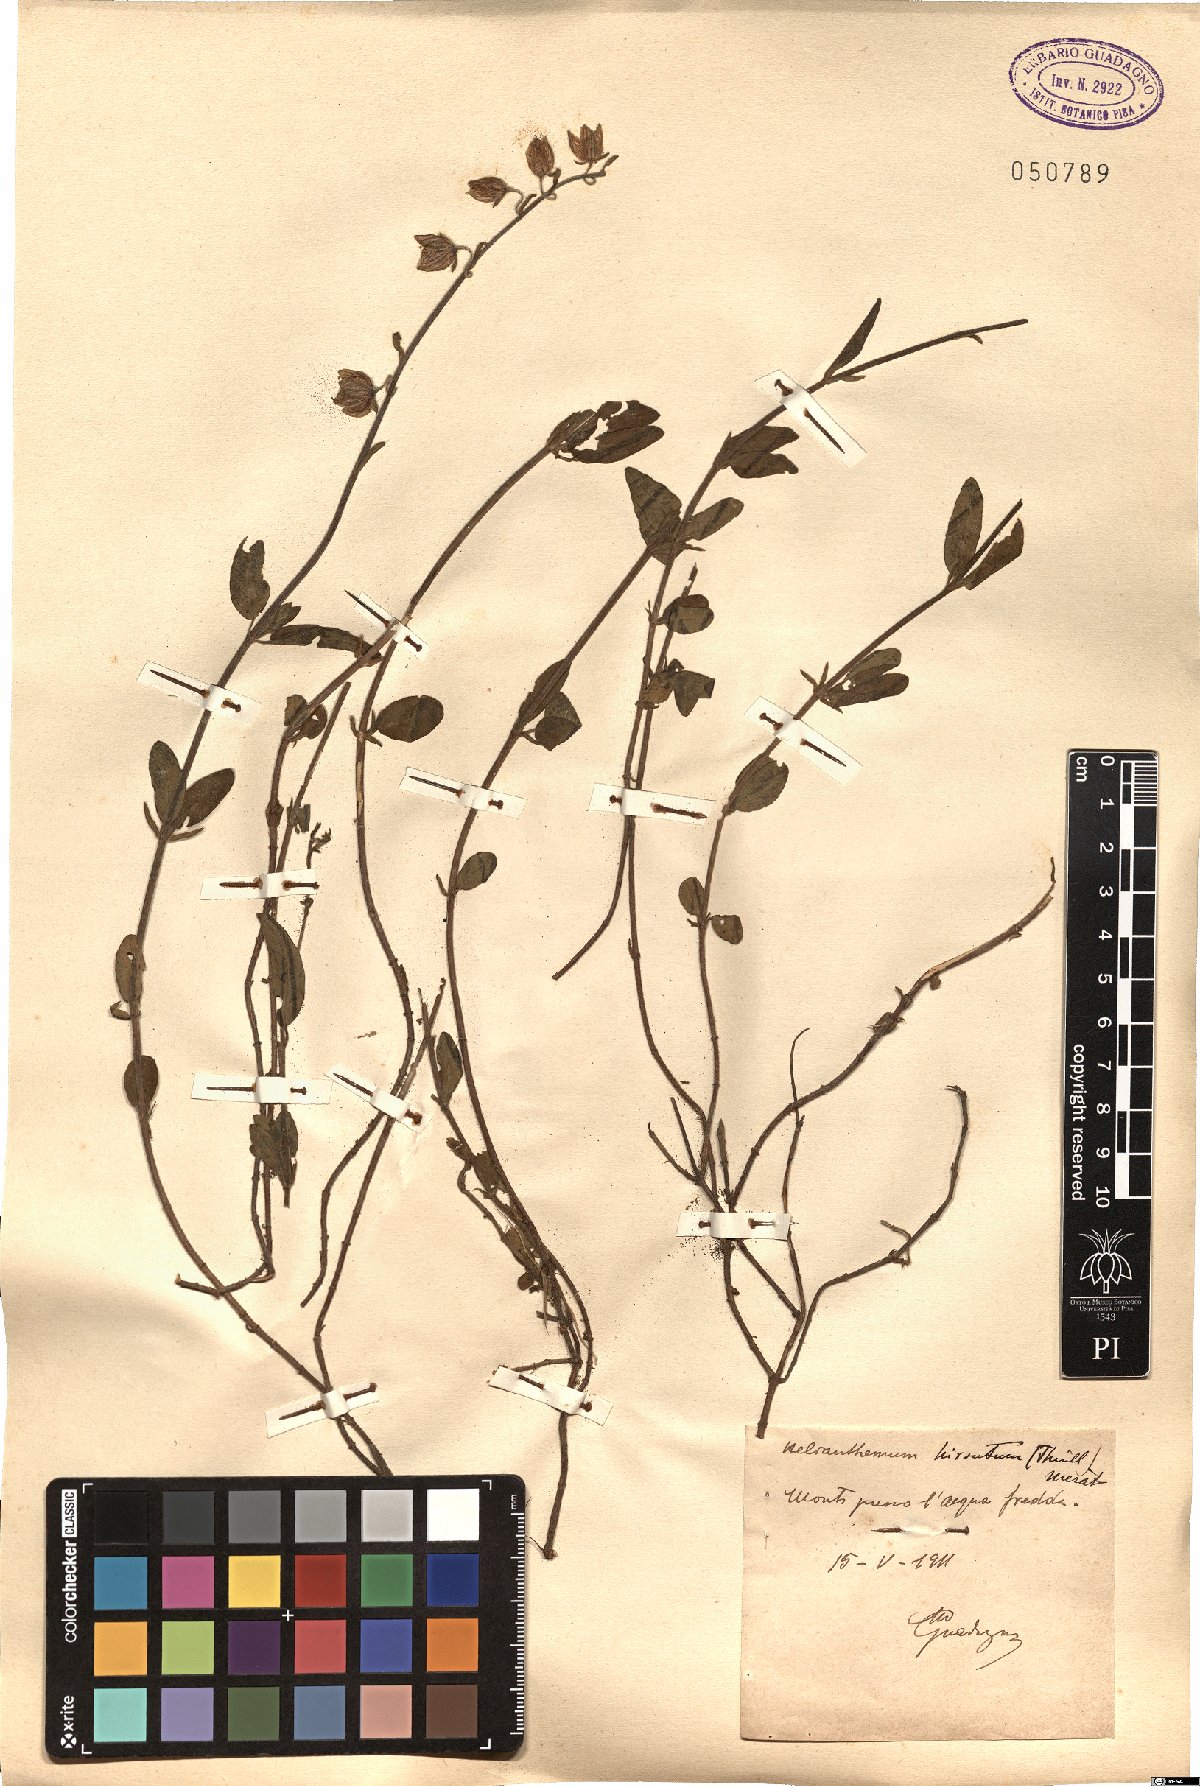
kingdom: Plantae
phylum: Tracheophyta
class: Magnoliopsida
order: Malvales
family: Cistaceae
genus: Helianthemum
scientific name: Helianthemum nummularium
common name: Common rock-rose
